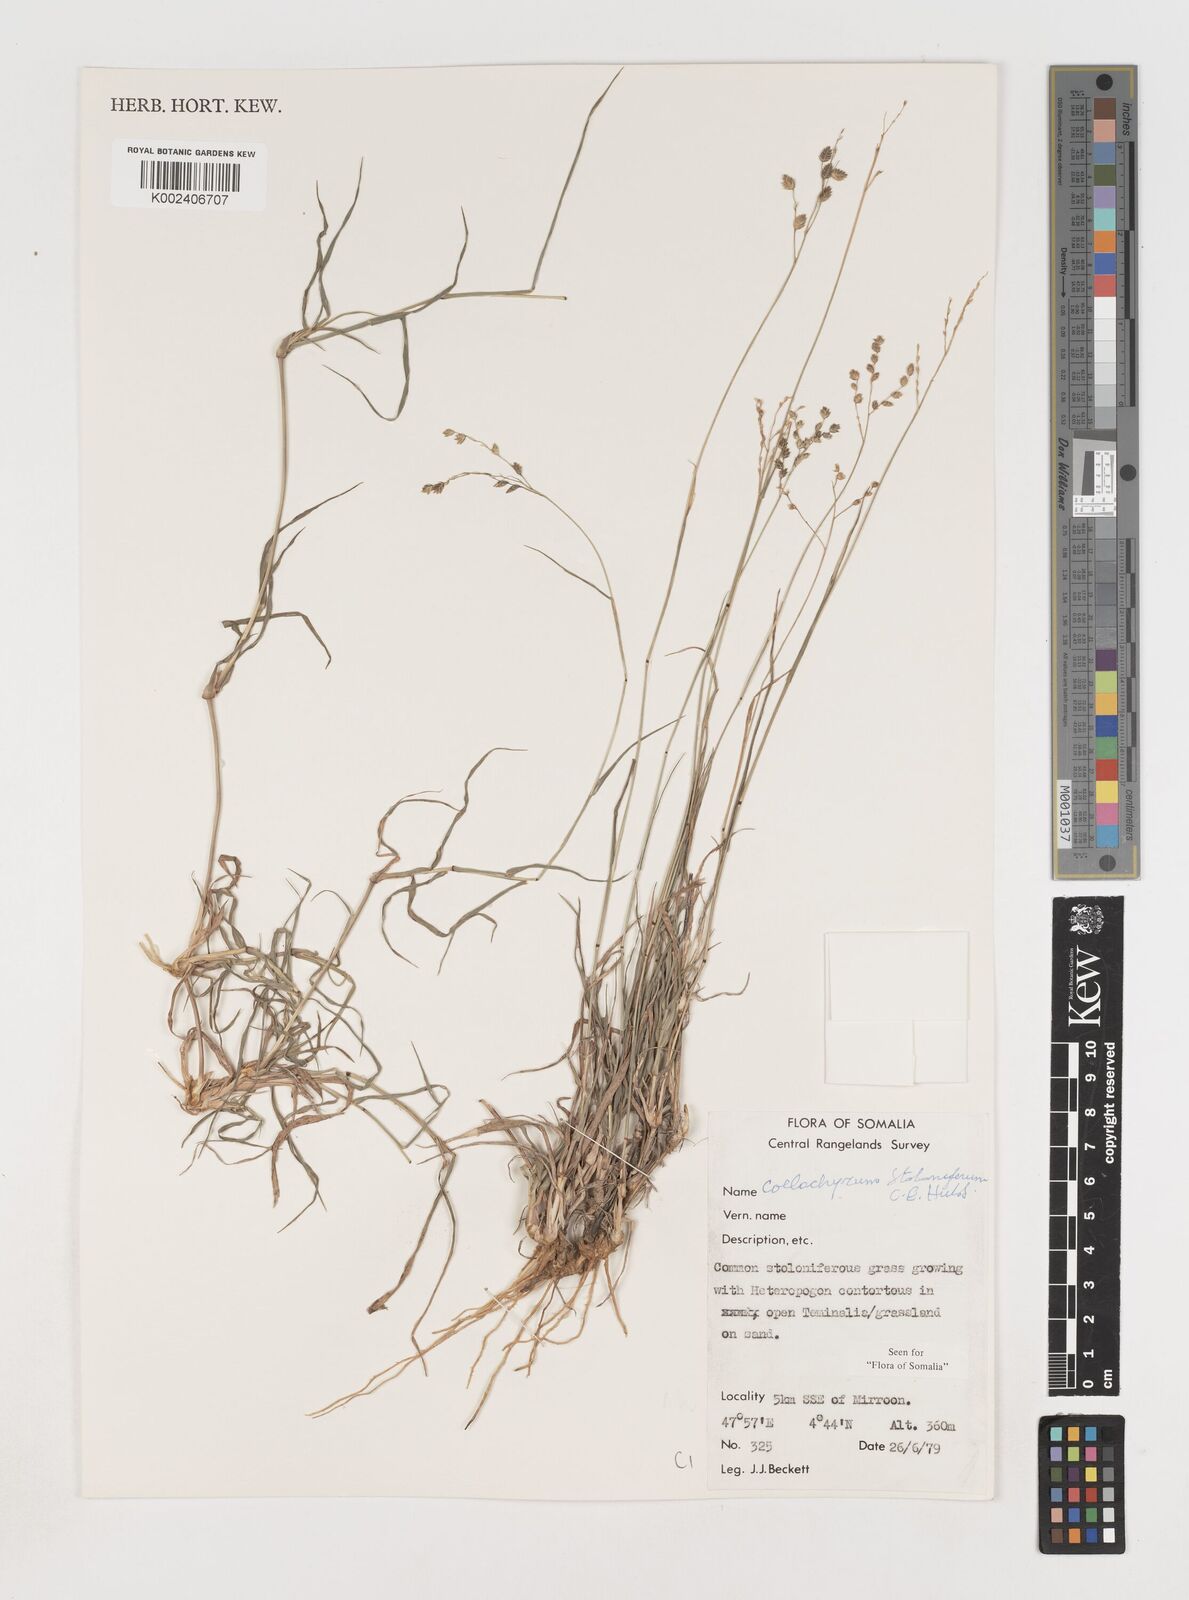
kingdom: Plantae
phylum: Tracheophyta
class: Liliopsida
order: Poales
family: Poaceae
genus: Coelachyrum
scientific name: Coelachyrum piercei
